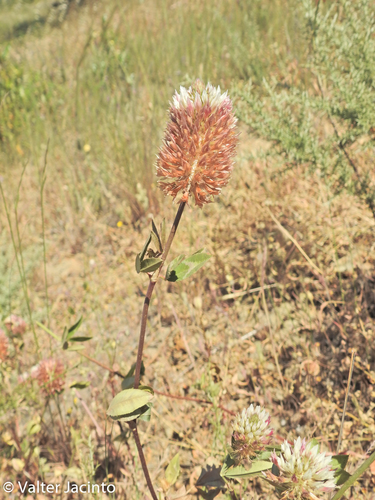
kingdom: Plantae
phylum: Tracheophyta
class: Magnoliopsida
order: Fabales
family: Fabaceae
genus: Trifolium
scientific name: Trifolium vesiculosum
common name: Arrowleaf clover
